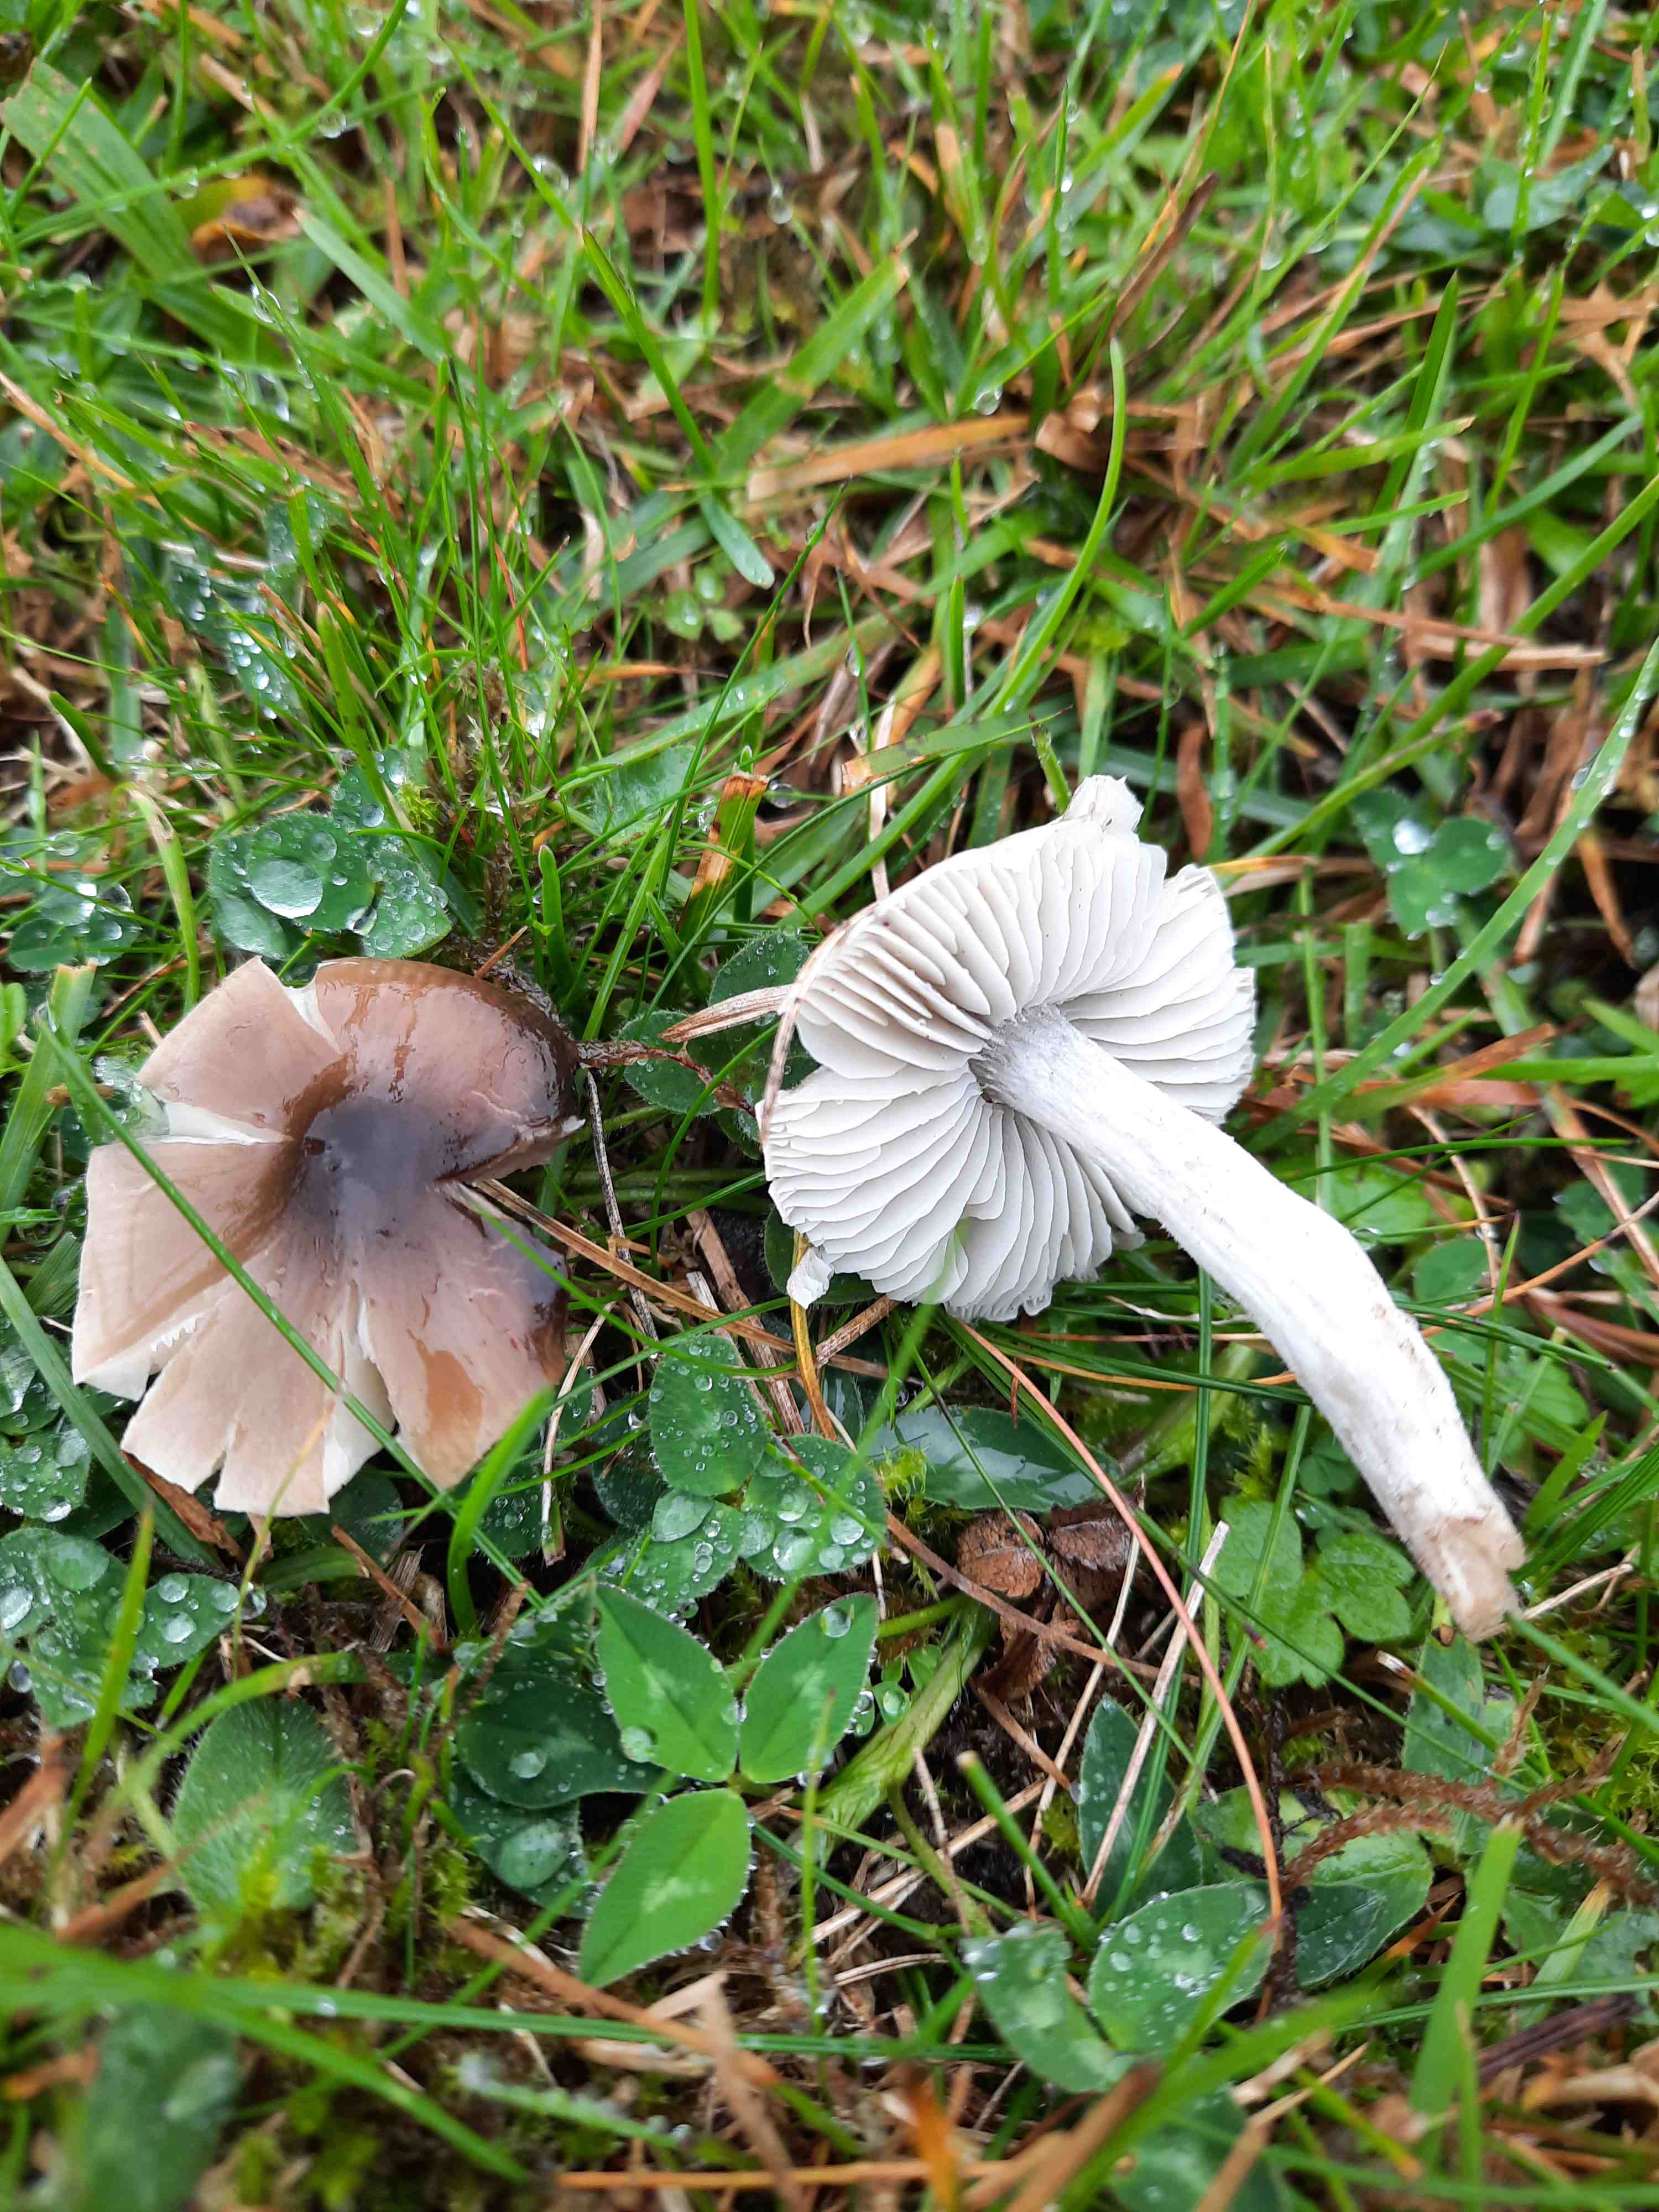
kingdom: Fungi
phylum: Basidiomycota
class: Agaricomycetes
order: Agaricales
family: Tricholomataceae
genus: Dermoloma
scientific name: Dermoloma cuneifolium
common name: eng-nonnehat
